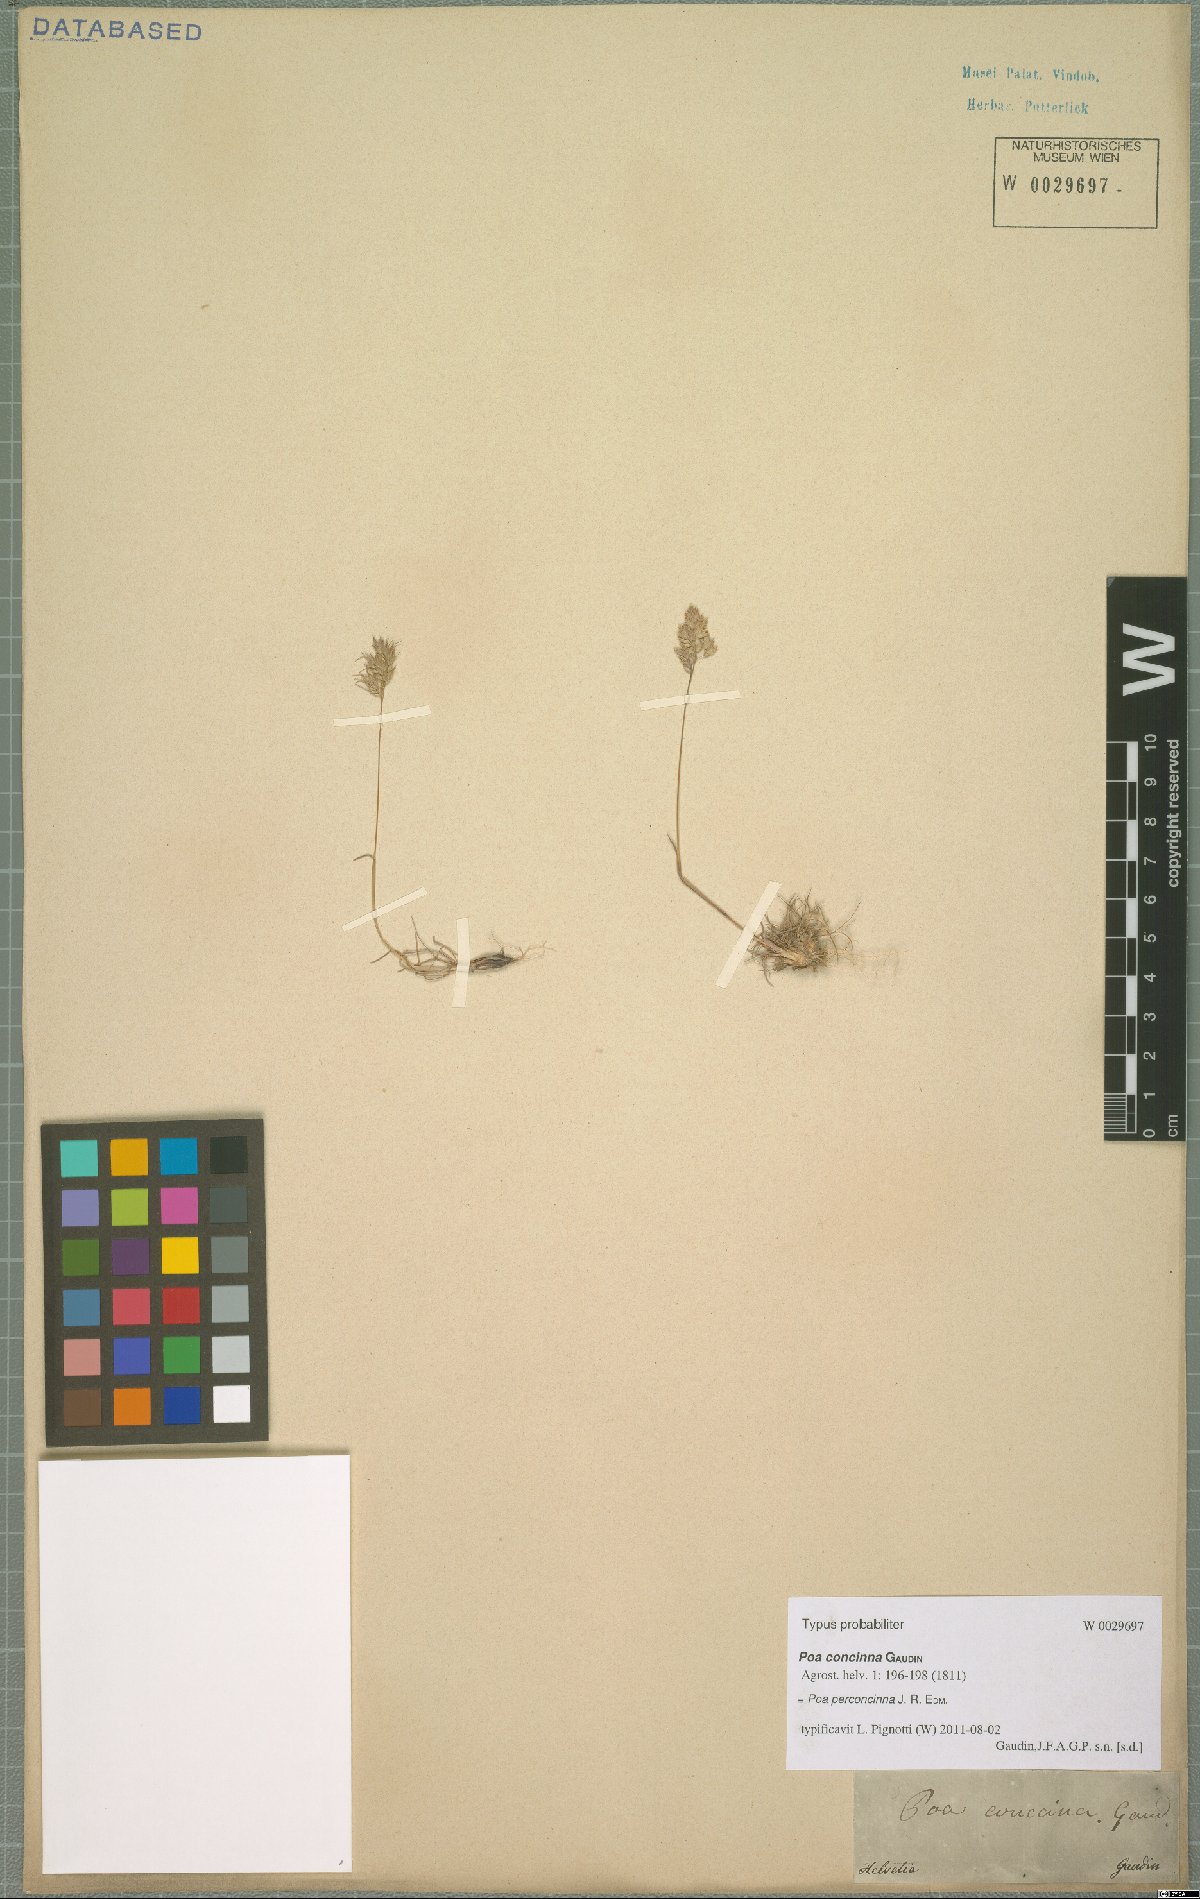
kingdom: Plantae
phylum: Tracheophyta
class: Liliopsida
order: Poales
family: Poaceae
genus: Poa
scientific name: Poa perconcinna
